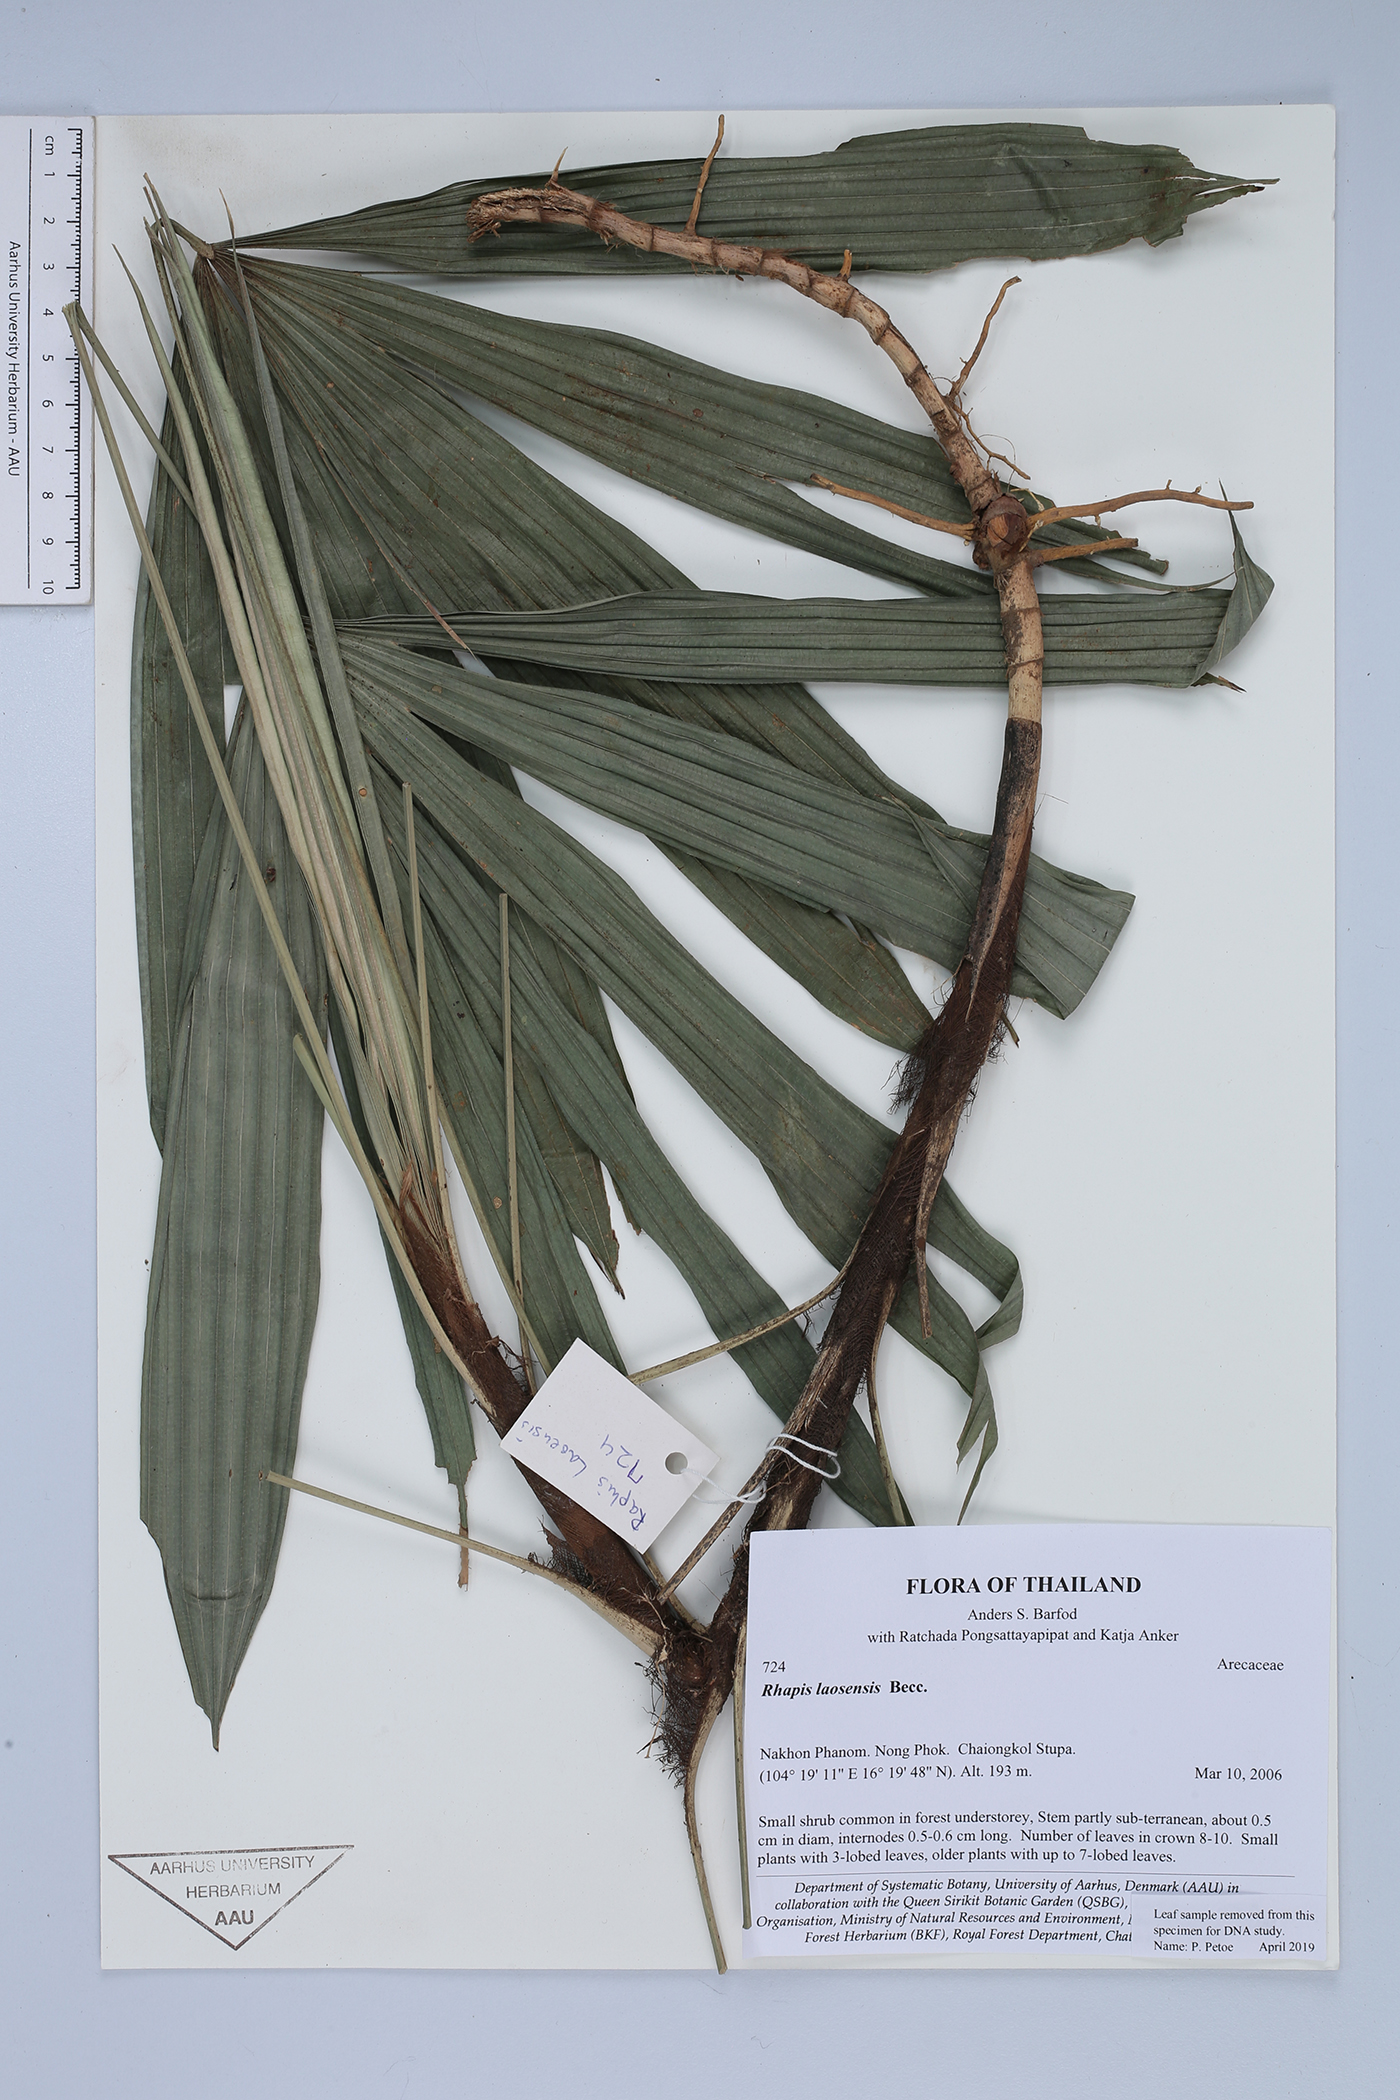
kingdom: Plantae
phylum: Tracheophyta
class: Liliopsida
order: Arecales
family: Arecaceae
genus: Rhapis
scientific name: Rhapis laosensis
